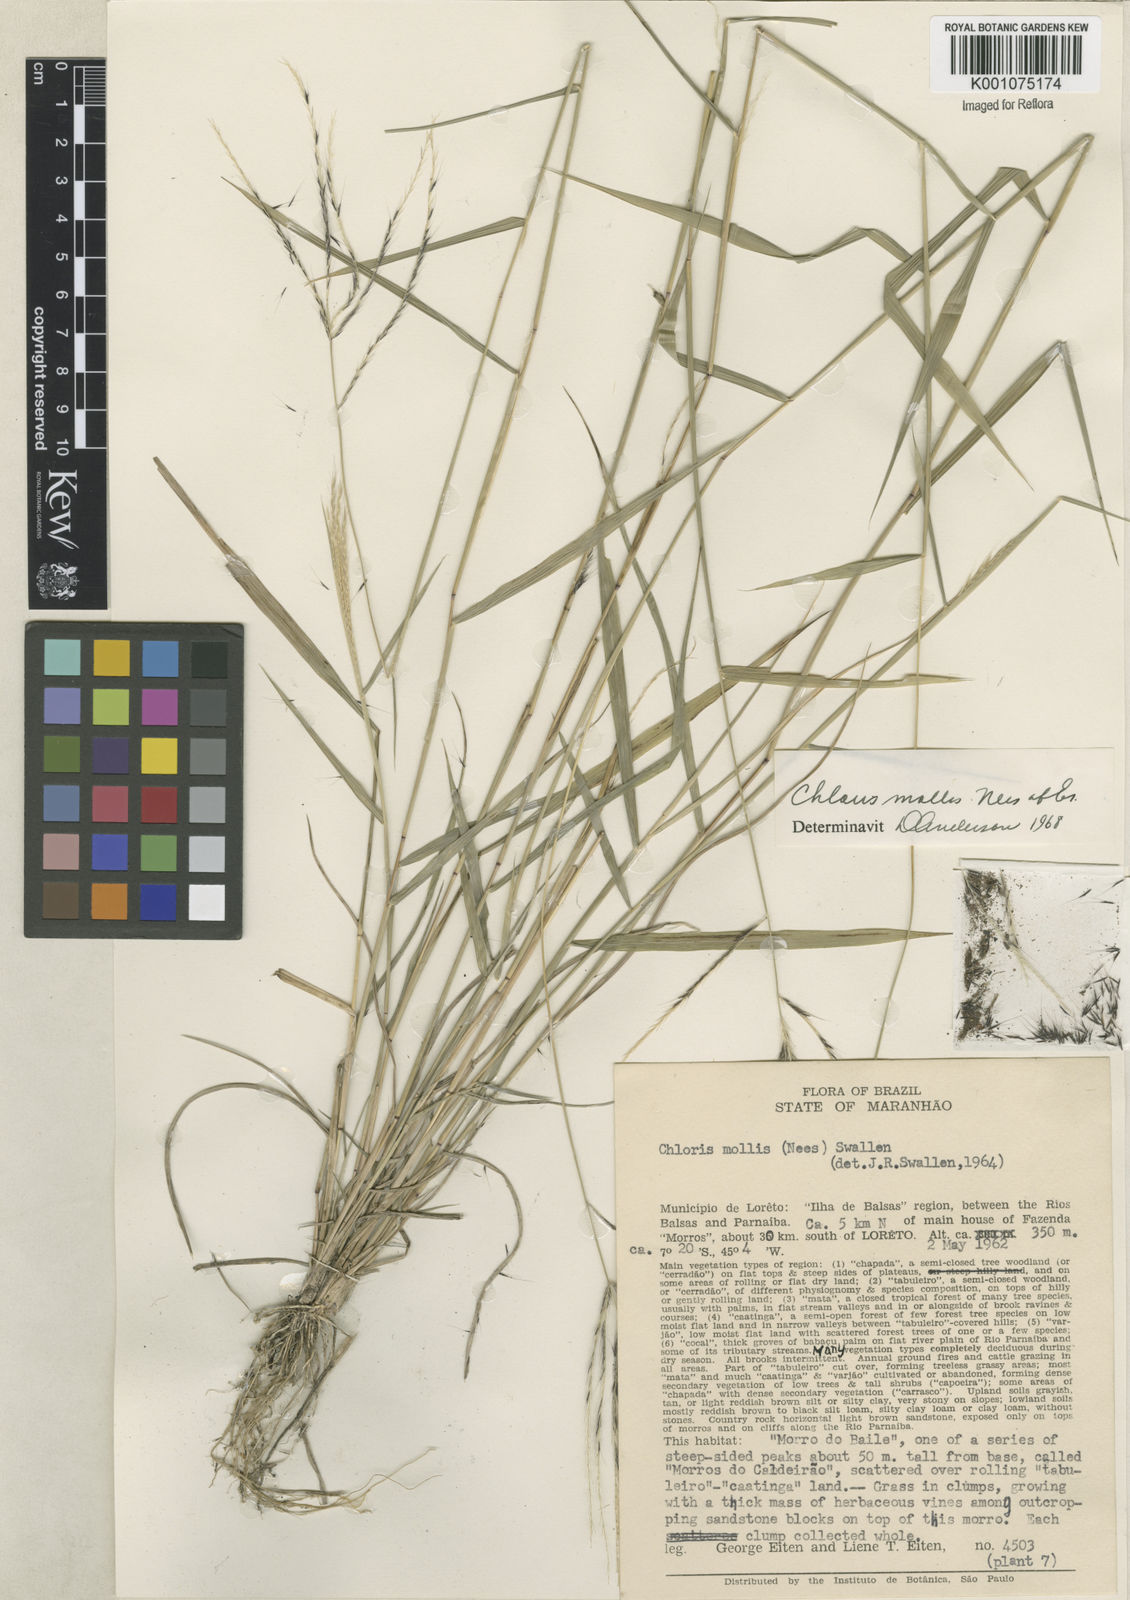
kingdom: Plantae
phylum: Tracheophyta
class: Liliopsida
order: Poales
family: Poaceae
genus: Leptochloa
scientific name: Leptochloa anisopoda
